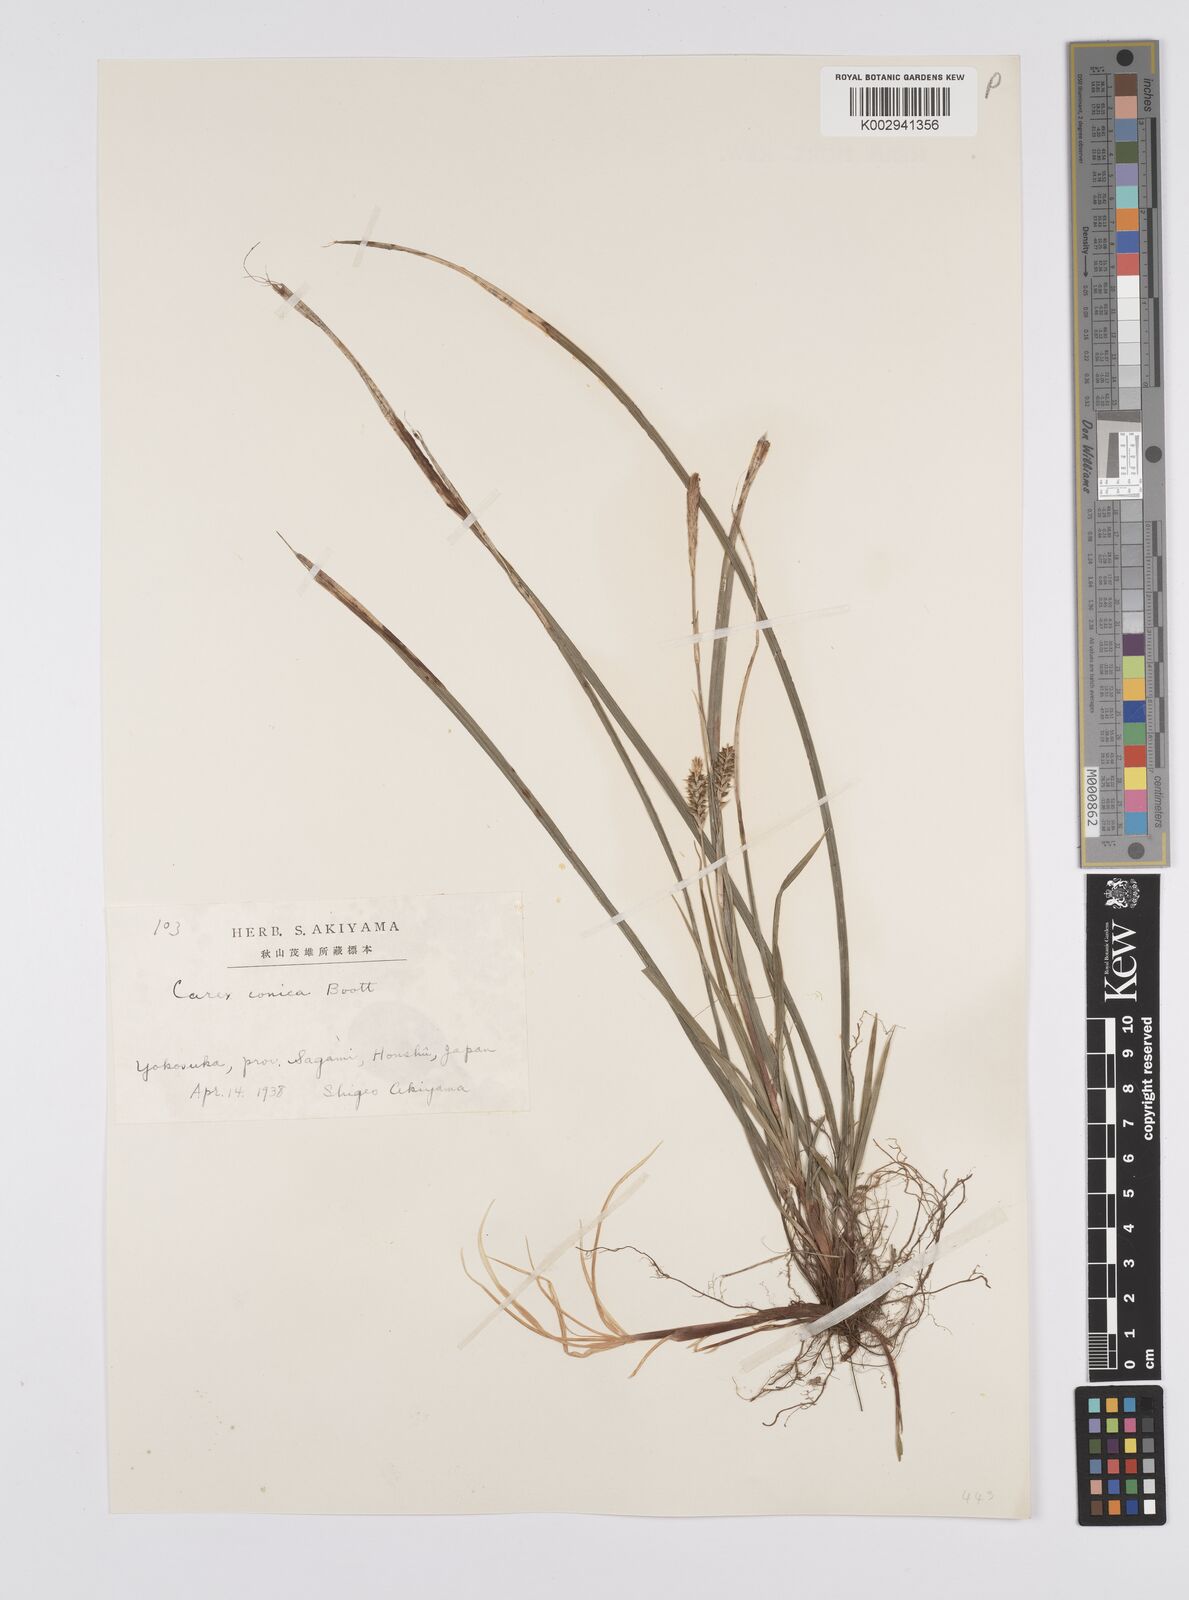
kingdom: Plantae
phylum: Tracheophyta
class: Liliopsida
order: Poales
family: Cyperaceae
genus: Carex
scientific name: Carex conica
